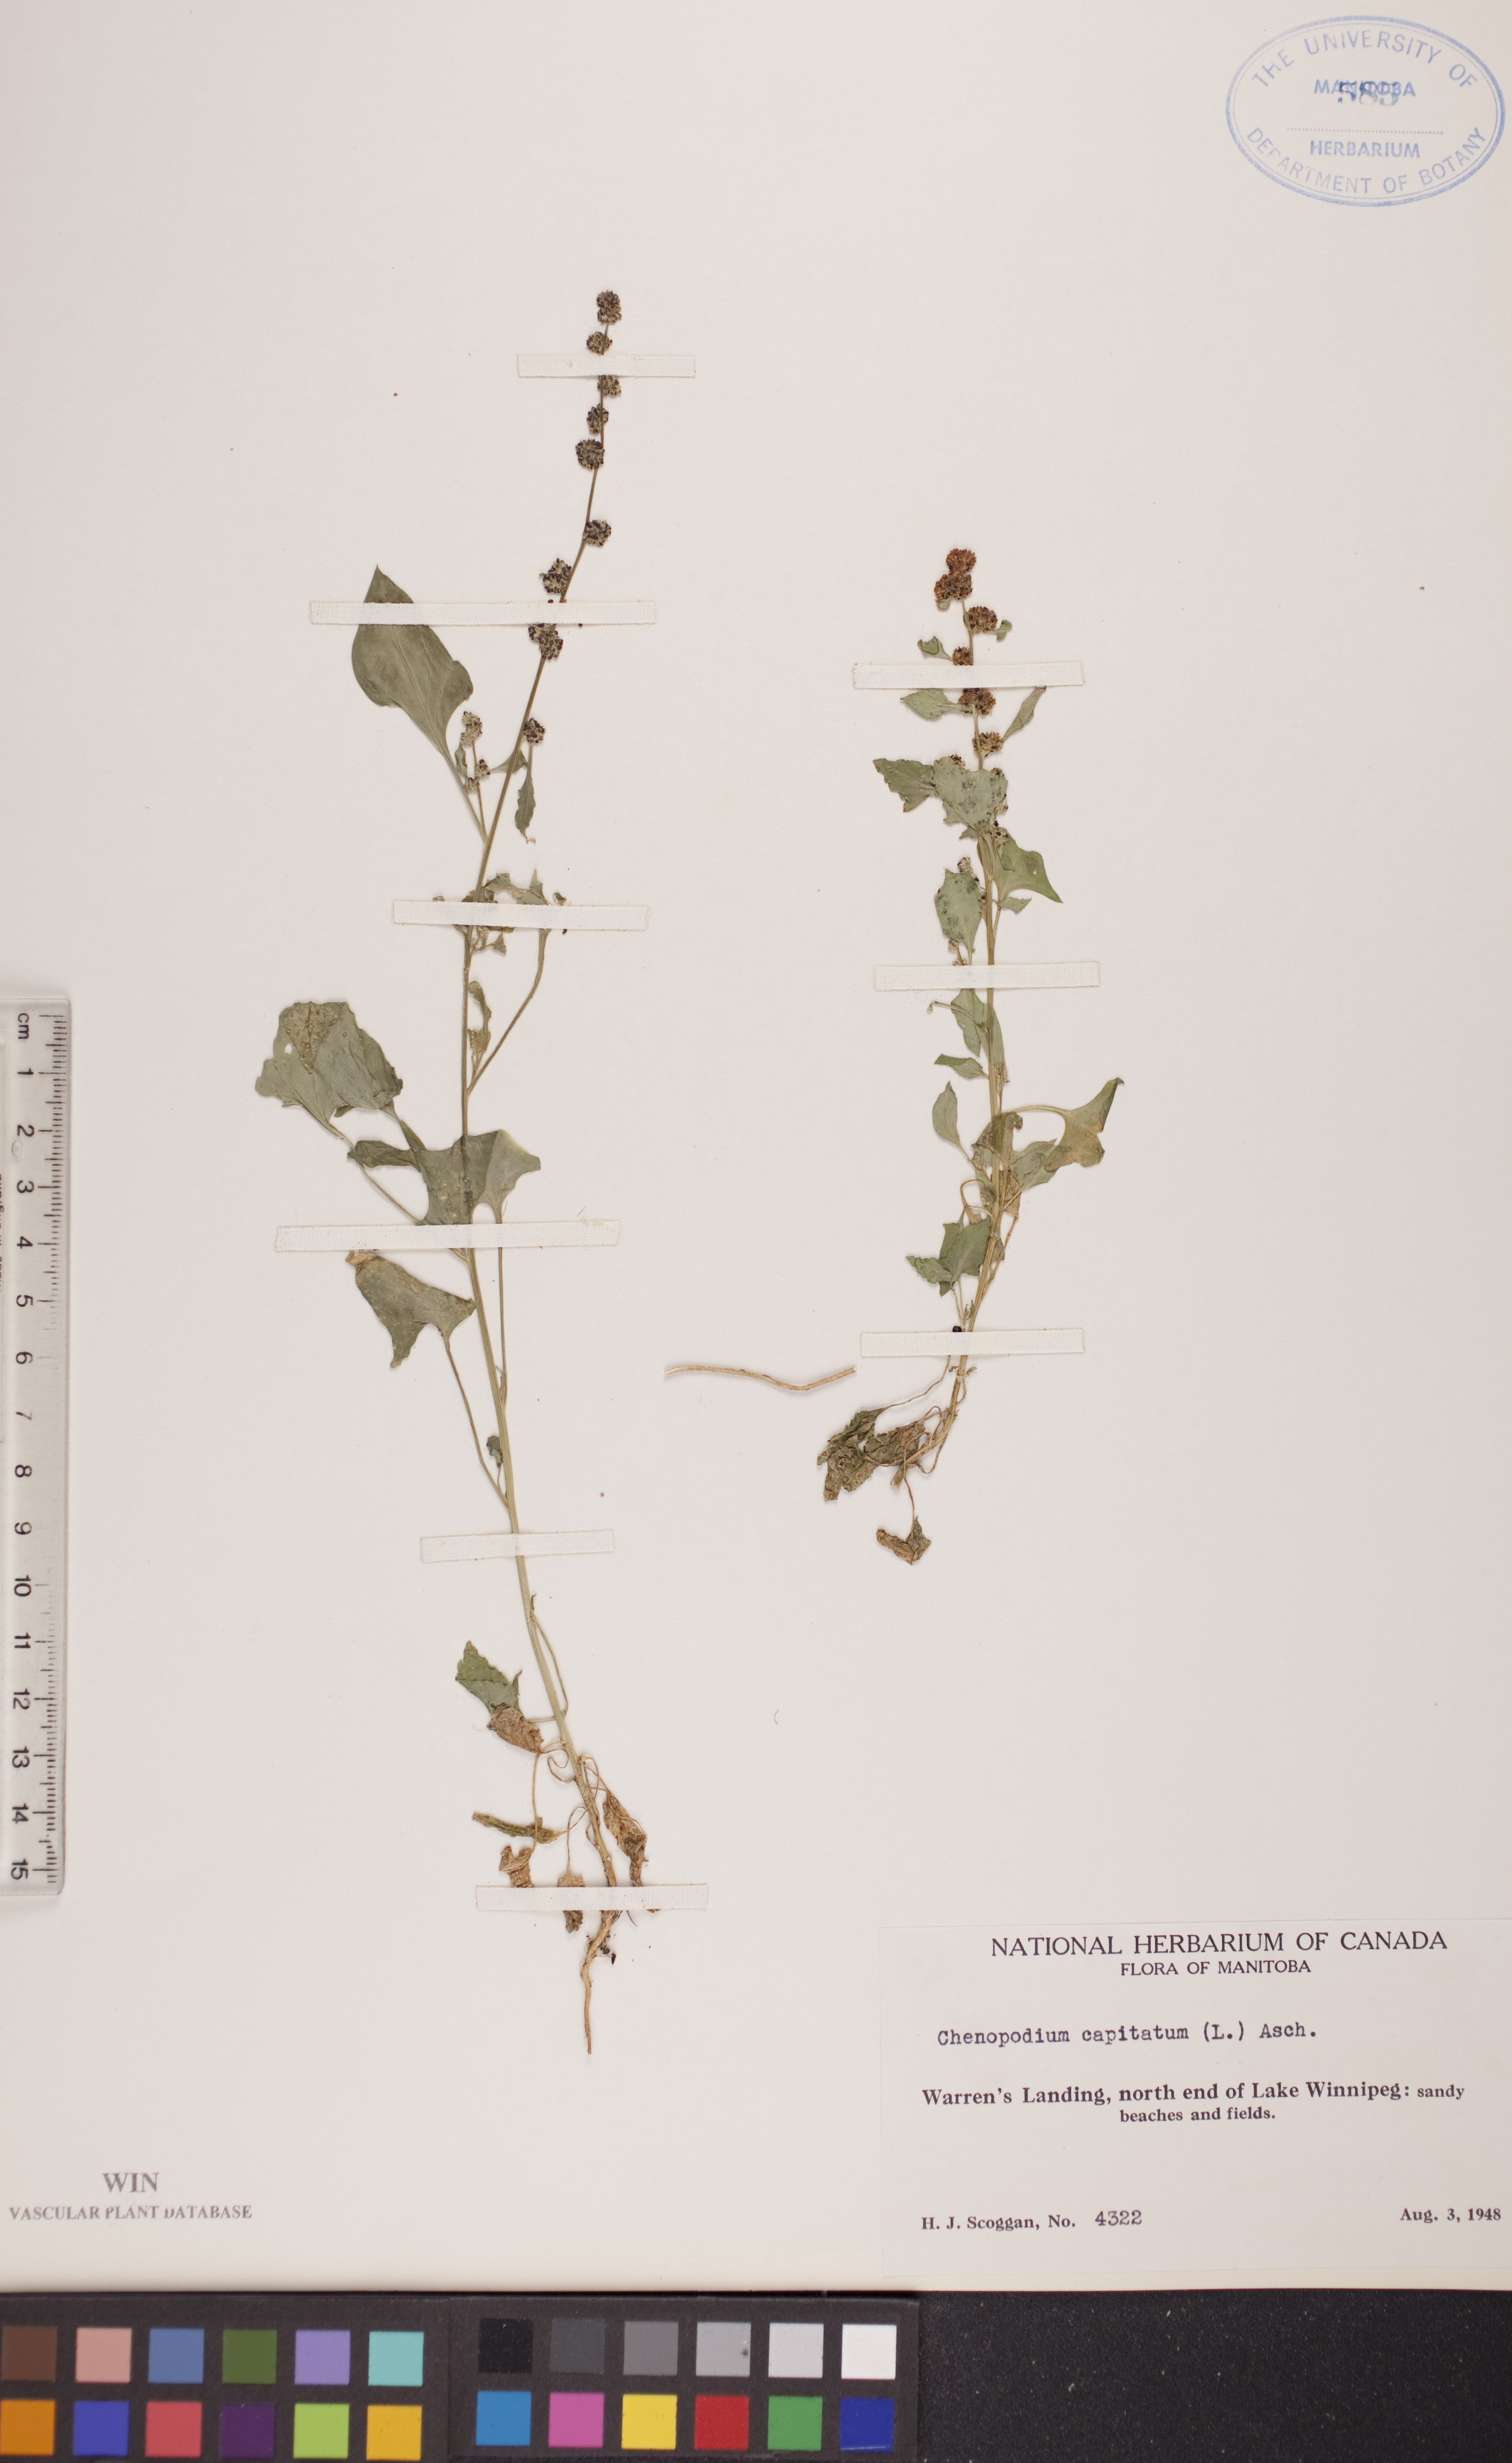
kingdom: Plantae
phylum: Tracheophyta
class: Magnoliopsida
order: Caryophyllales
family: Amaranthaceae
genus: Blitum
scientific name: Blitum capitatum
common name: Strawberry-blight
